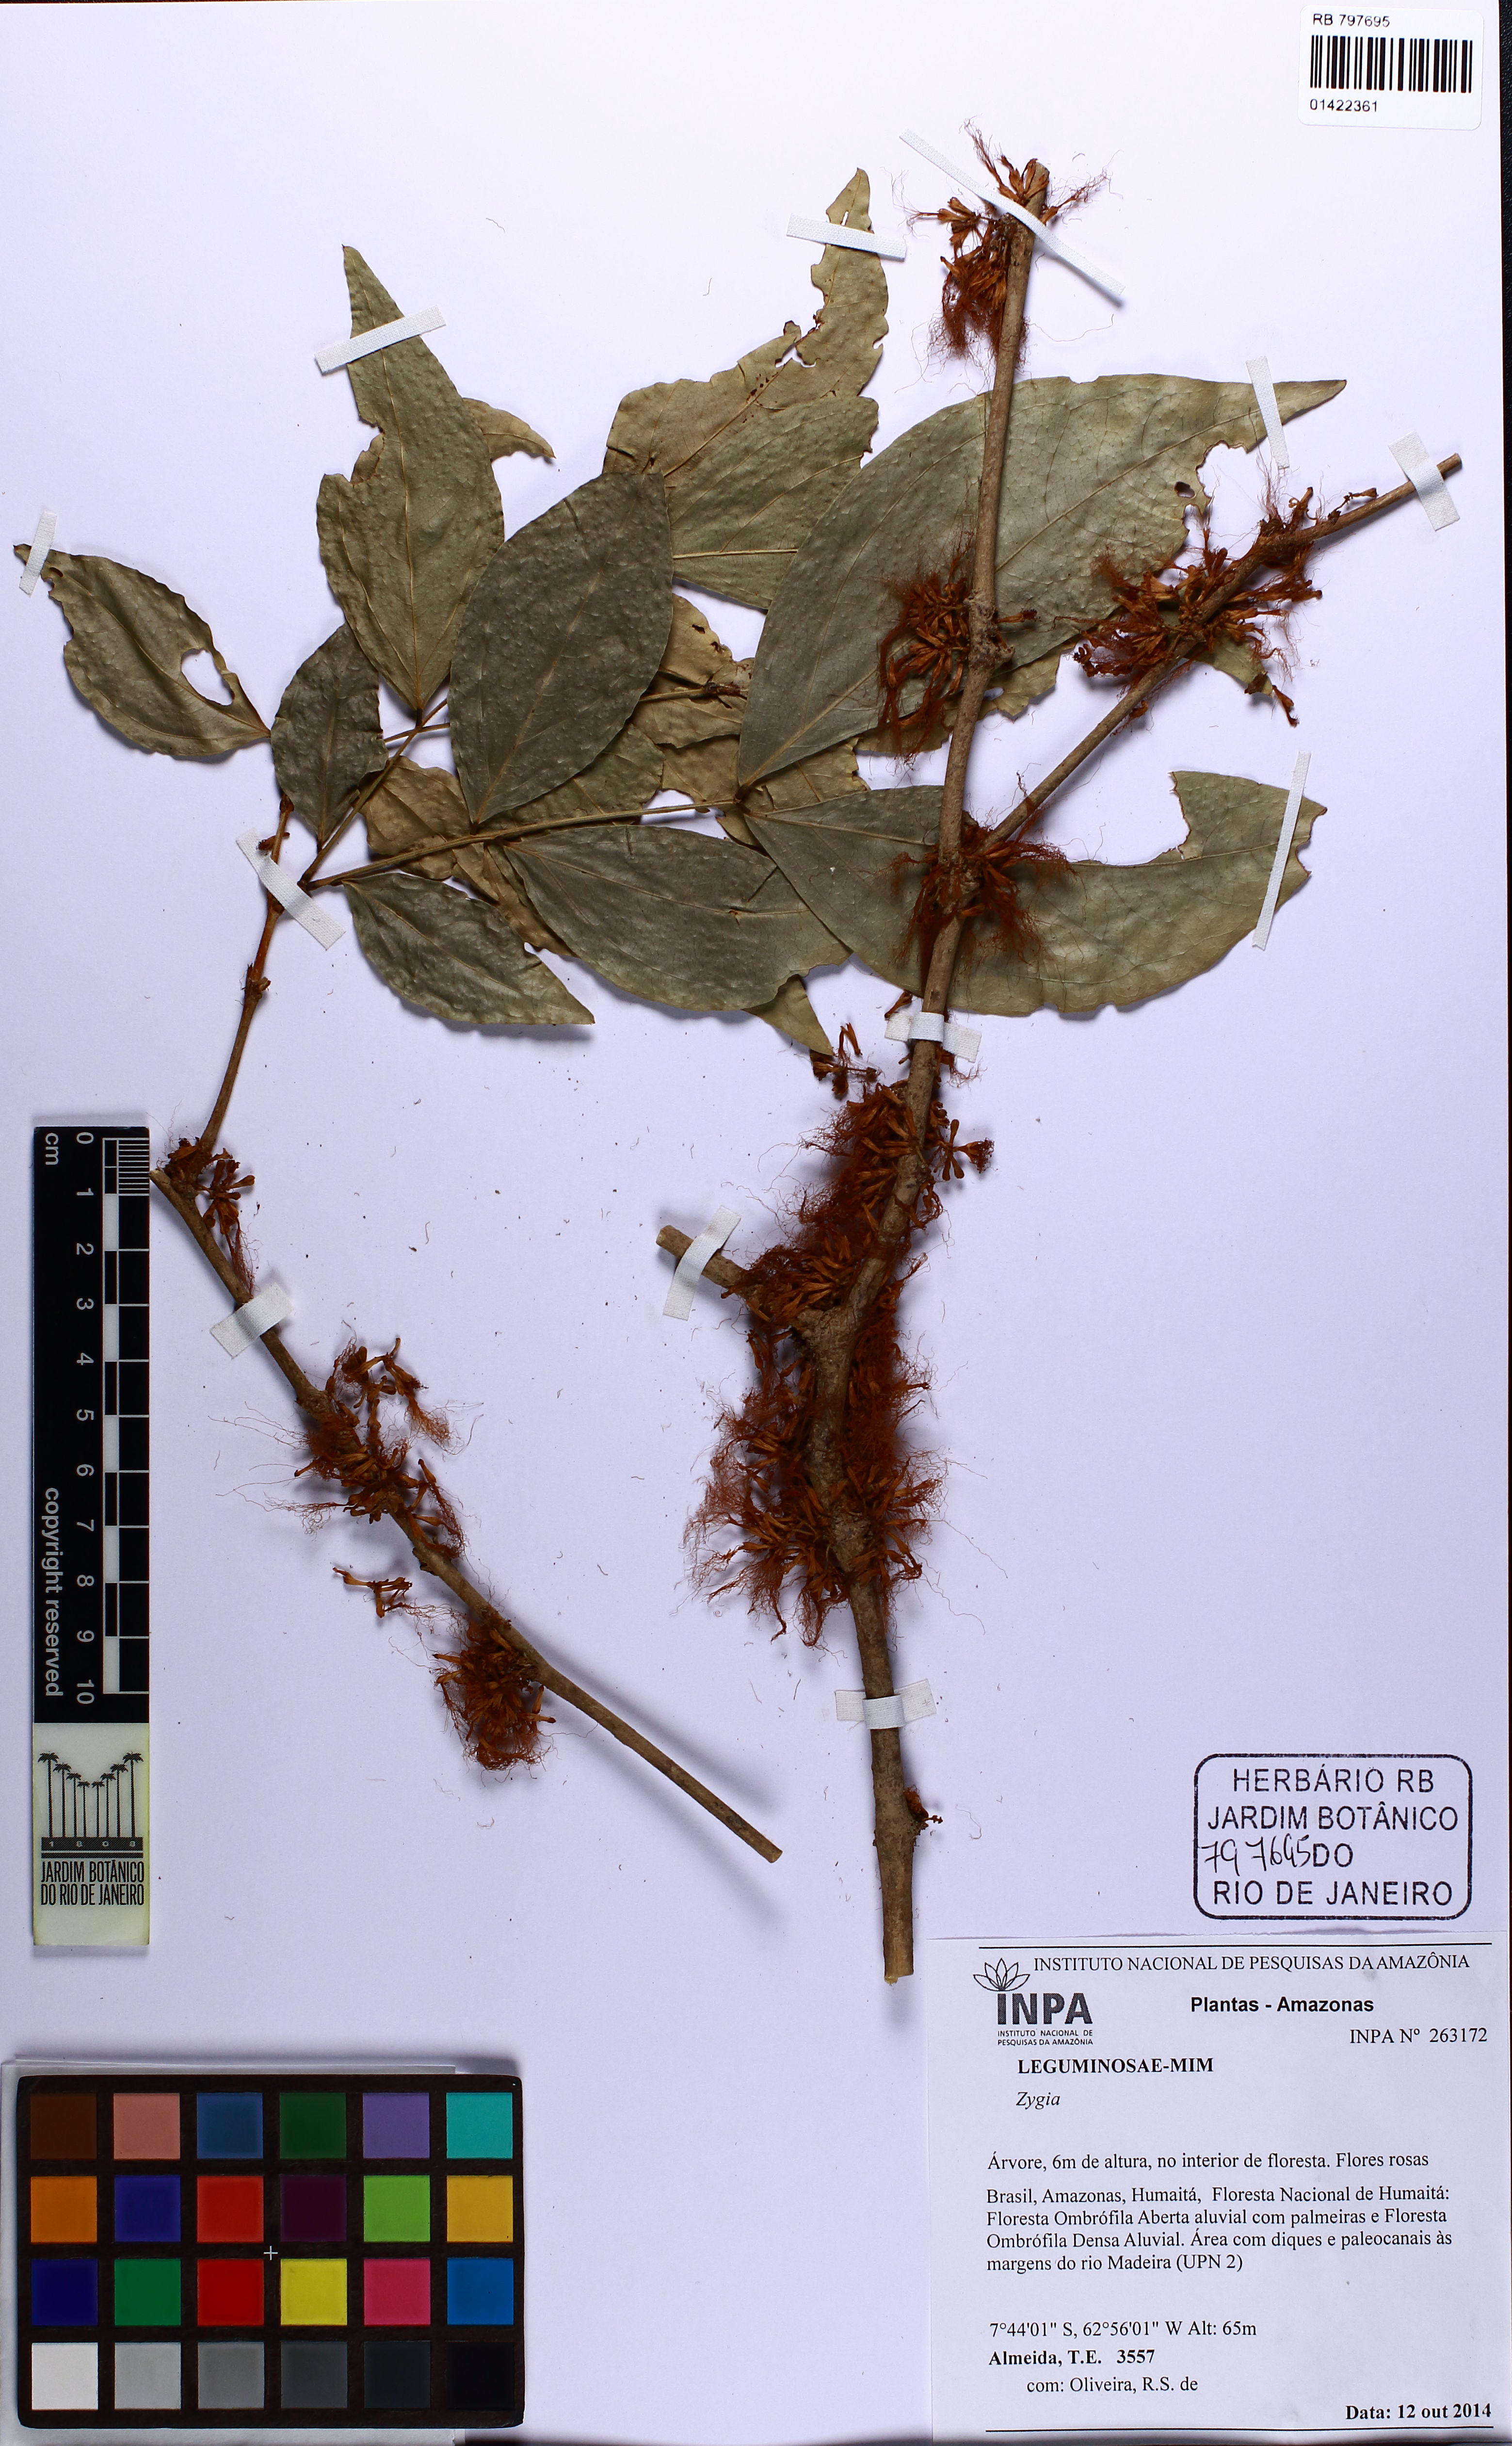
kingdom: Plantae
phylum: Tracheophyta
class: Magnoliopsida
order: Fabales
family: Fabaceae
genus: Zygia
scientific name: Zygia
